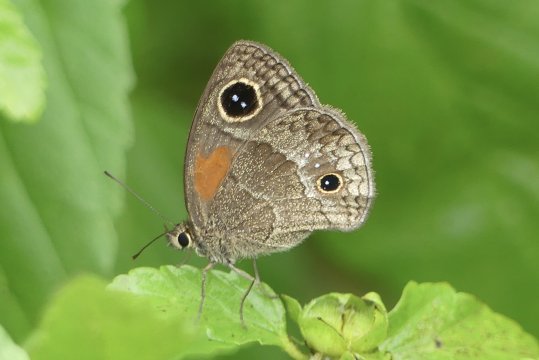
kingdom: Animalia
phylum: Arthropoda
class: Insecta
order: Lepidoptera
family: Nymphalidae
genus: Calisto
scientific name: Calisto obscura
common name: Obscure Calisto
